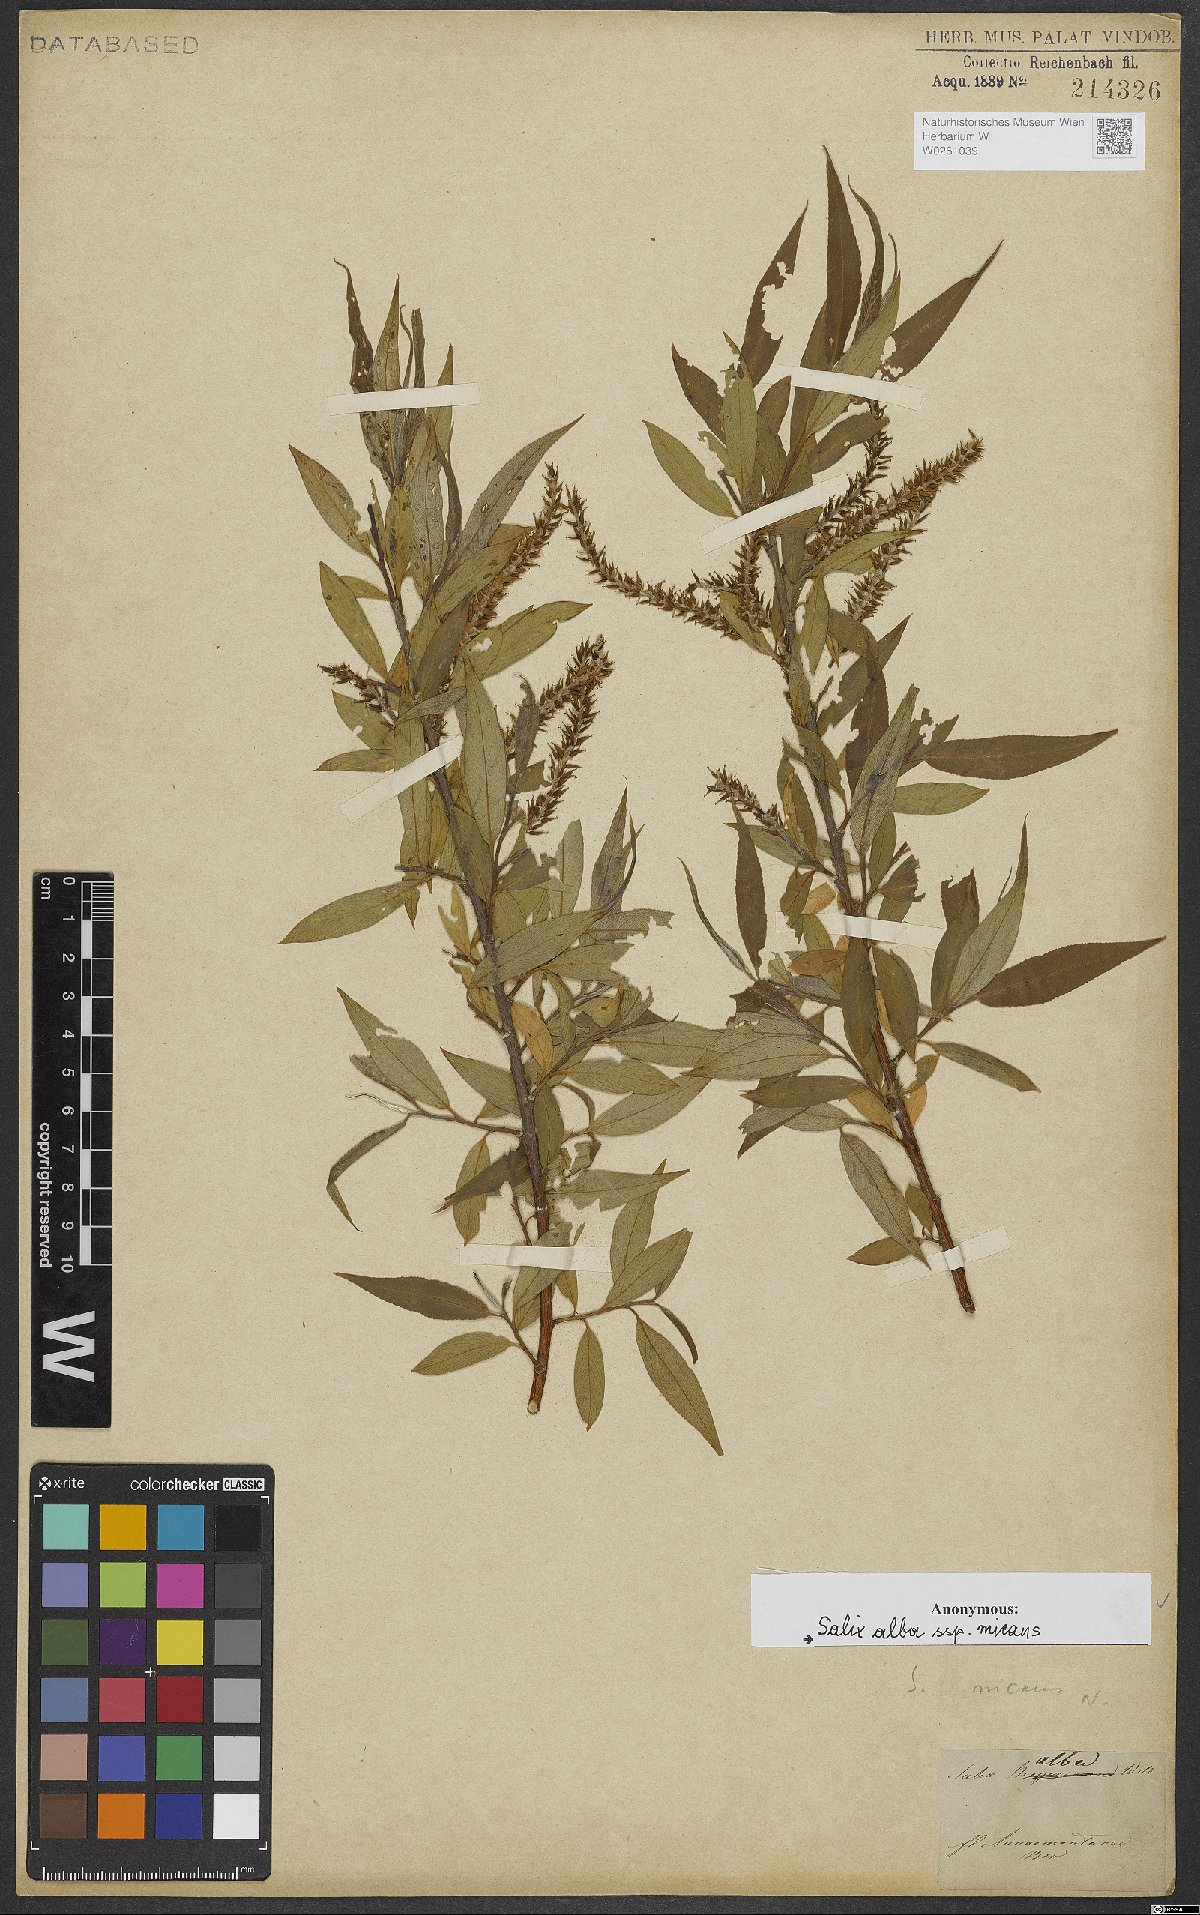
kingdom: Plantae
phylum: Tracheophyta
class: Magnoliopsida
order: Malpighiales
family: Salicaceae
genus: Salix
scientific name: Salix alba
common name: White willow
